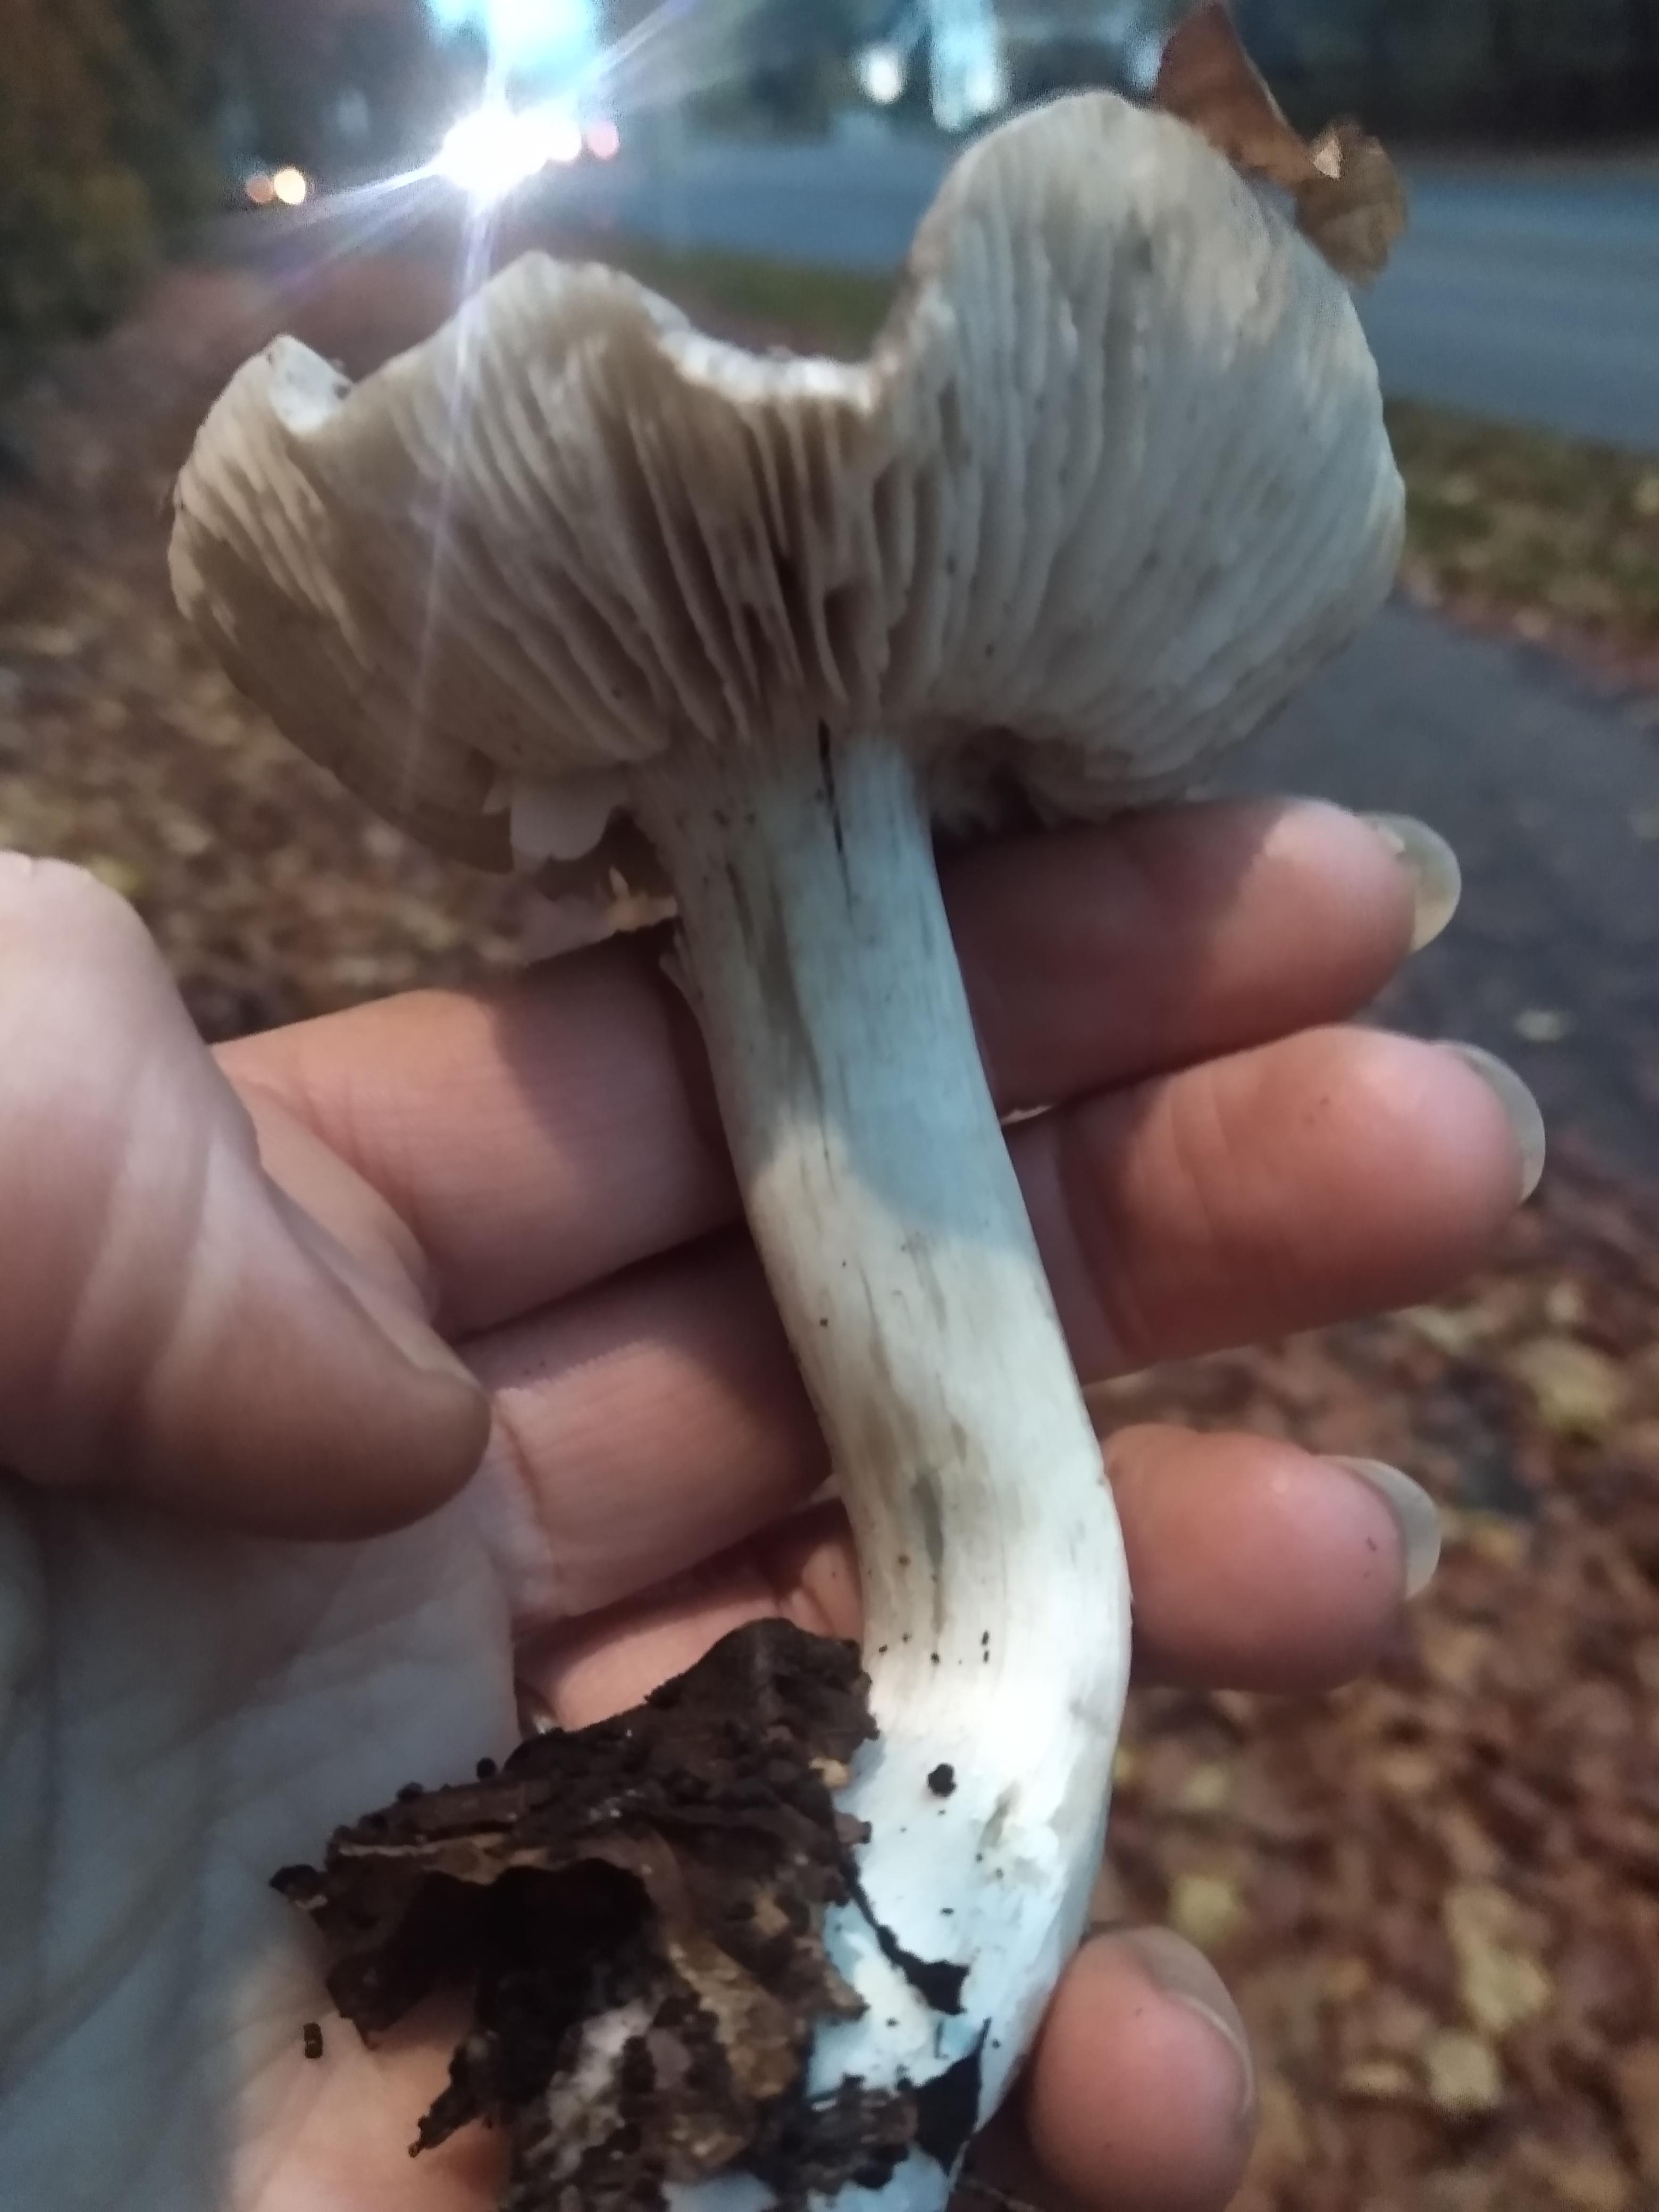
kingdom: Fungi
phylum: Basidiomycota
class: Agaricomycetes
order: Agaricales
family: Tricholomataceae
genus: Tricholoma
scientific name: Tricholoma
